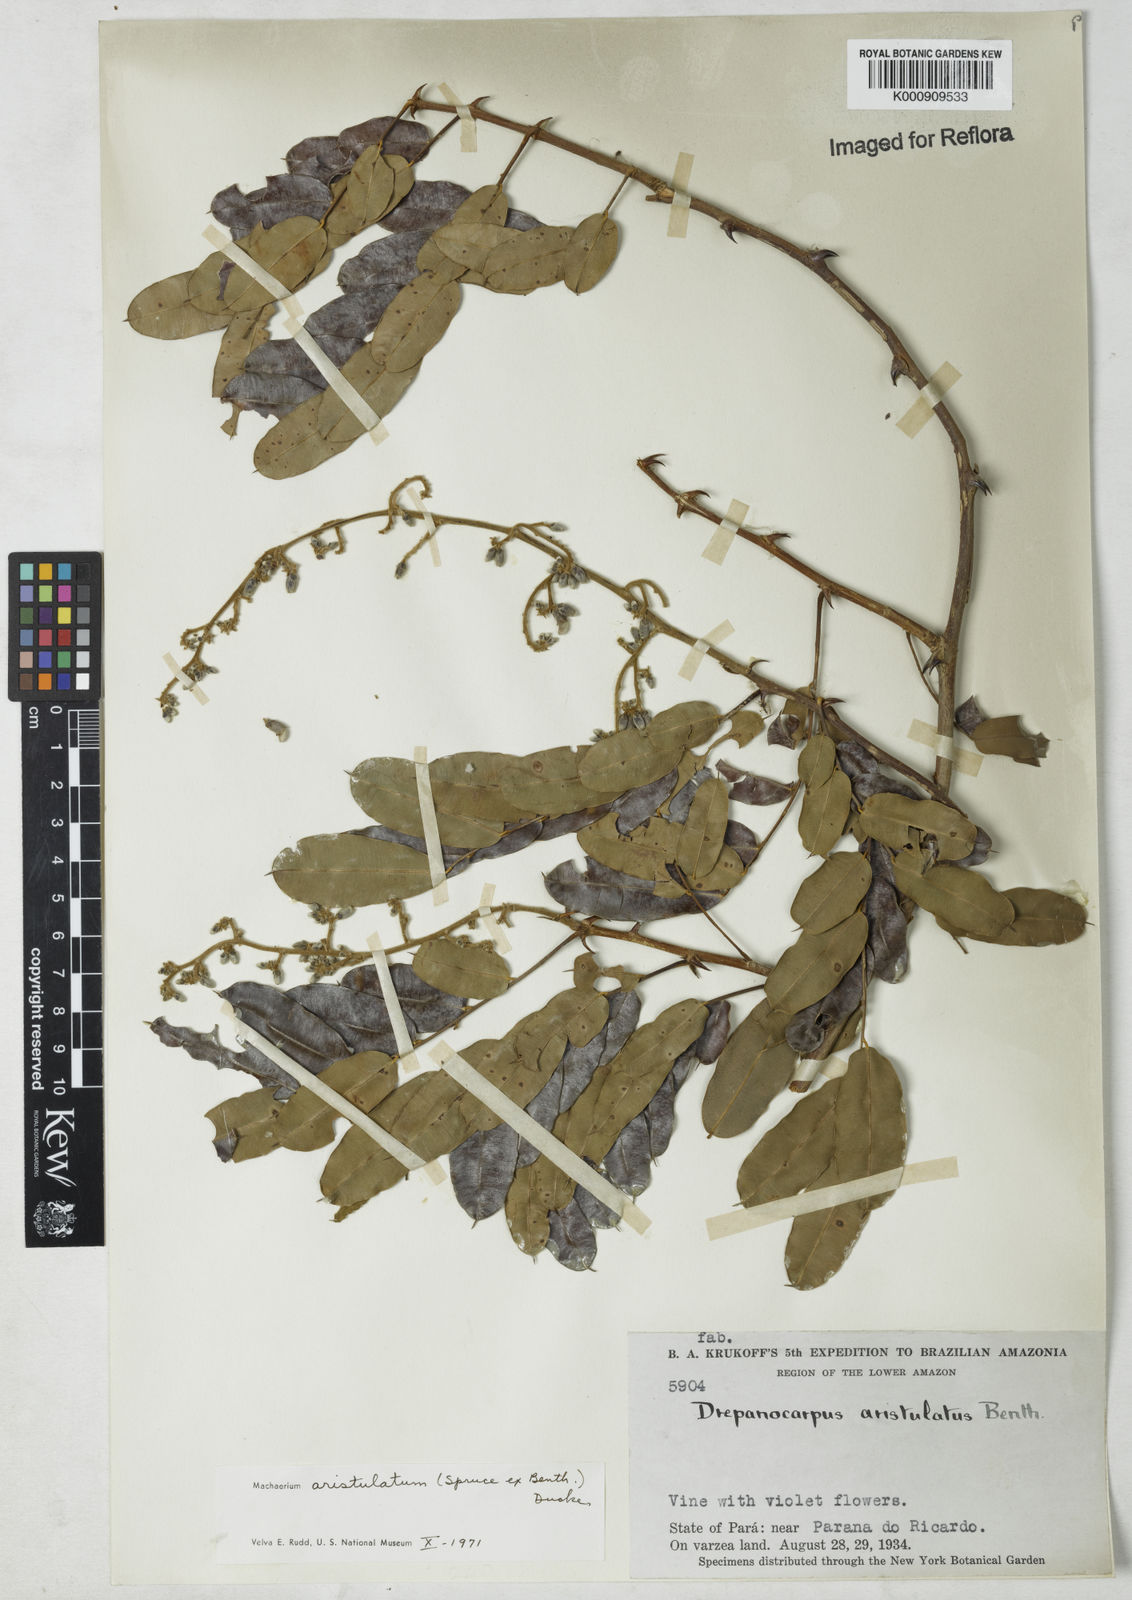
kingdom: Plantae
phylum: Tracheophyta
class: Magnoliopsida
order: Fabales
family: Fabaceae
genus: Machaerium
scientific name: Machaerium aristulatum
